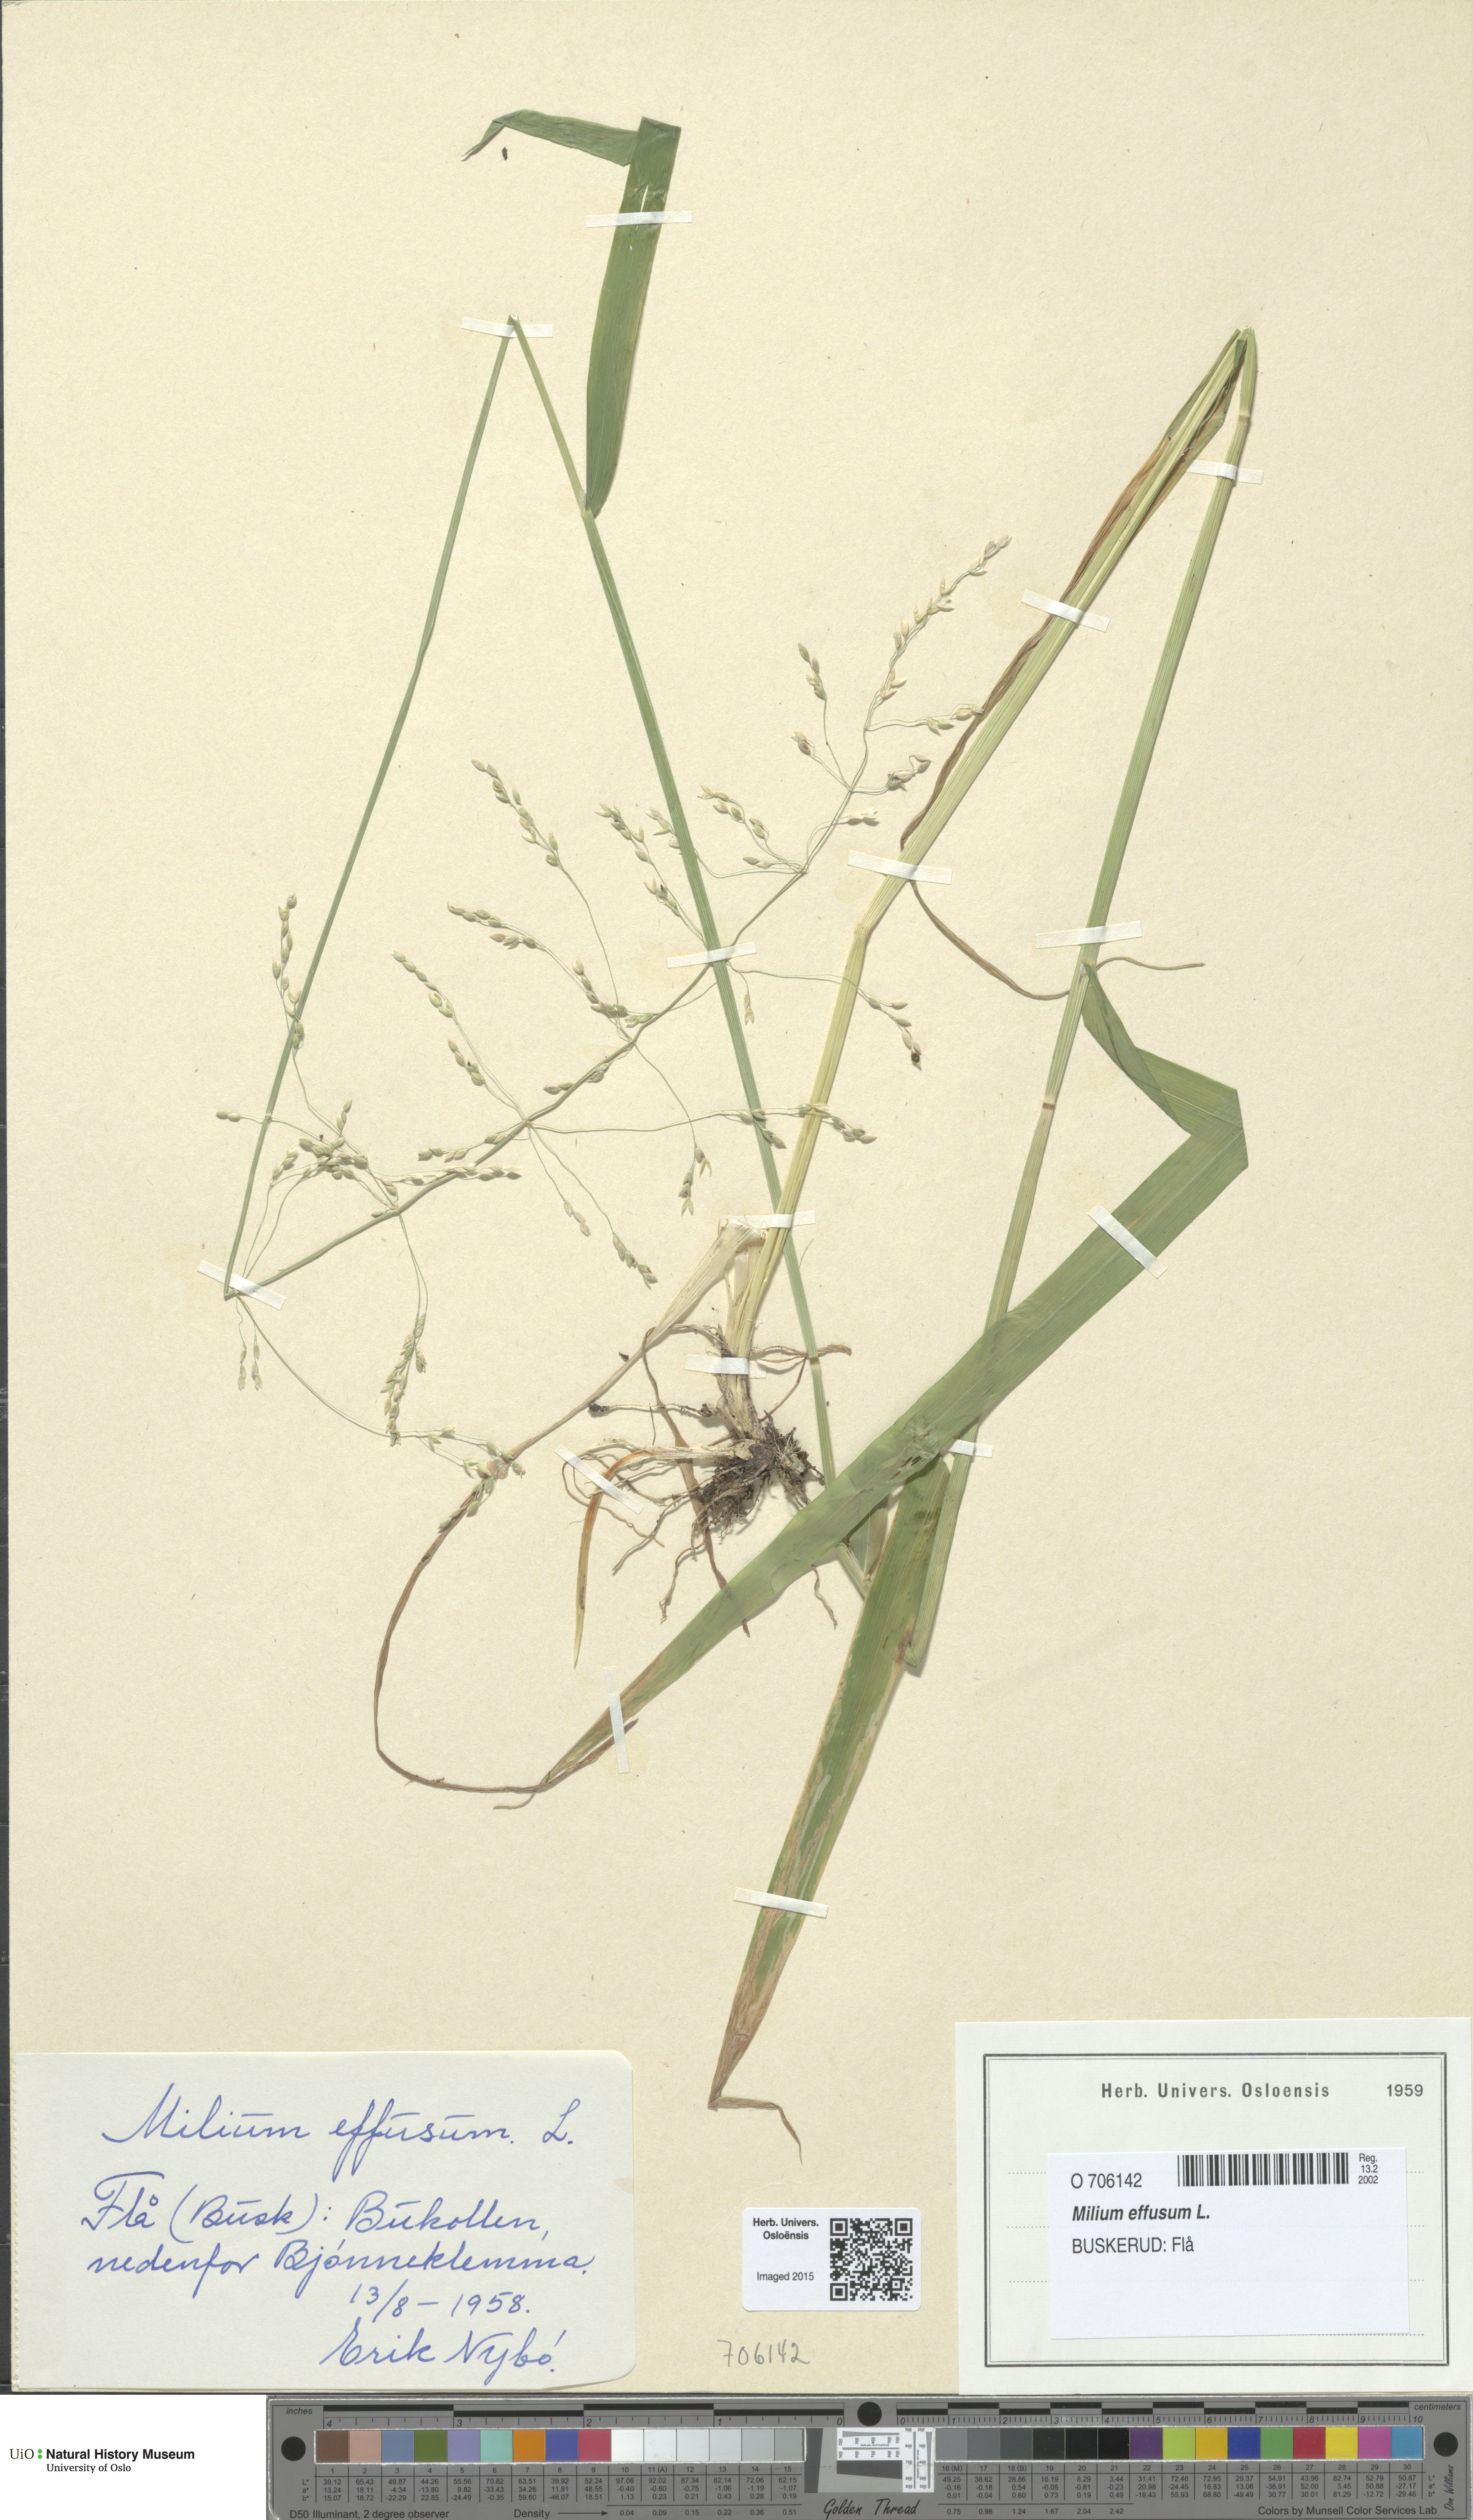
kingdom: Plantae
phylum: Tracheophyta
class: Liliopsida
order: Poales
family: Poaceae
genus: Milium
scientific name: Milium effusum
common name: Wood millet
